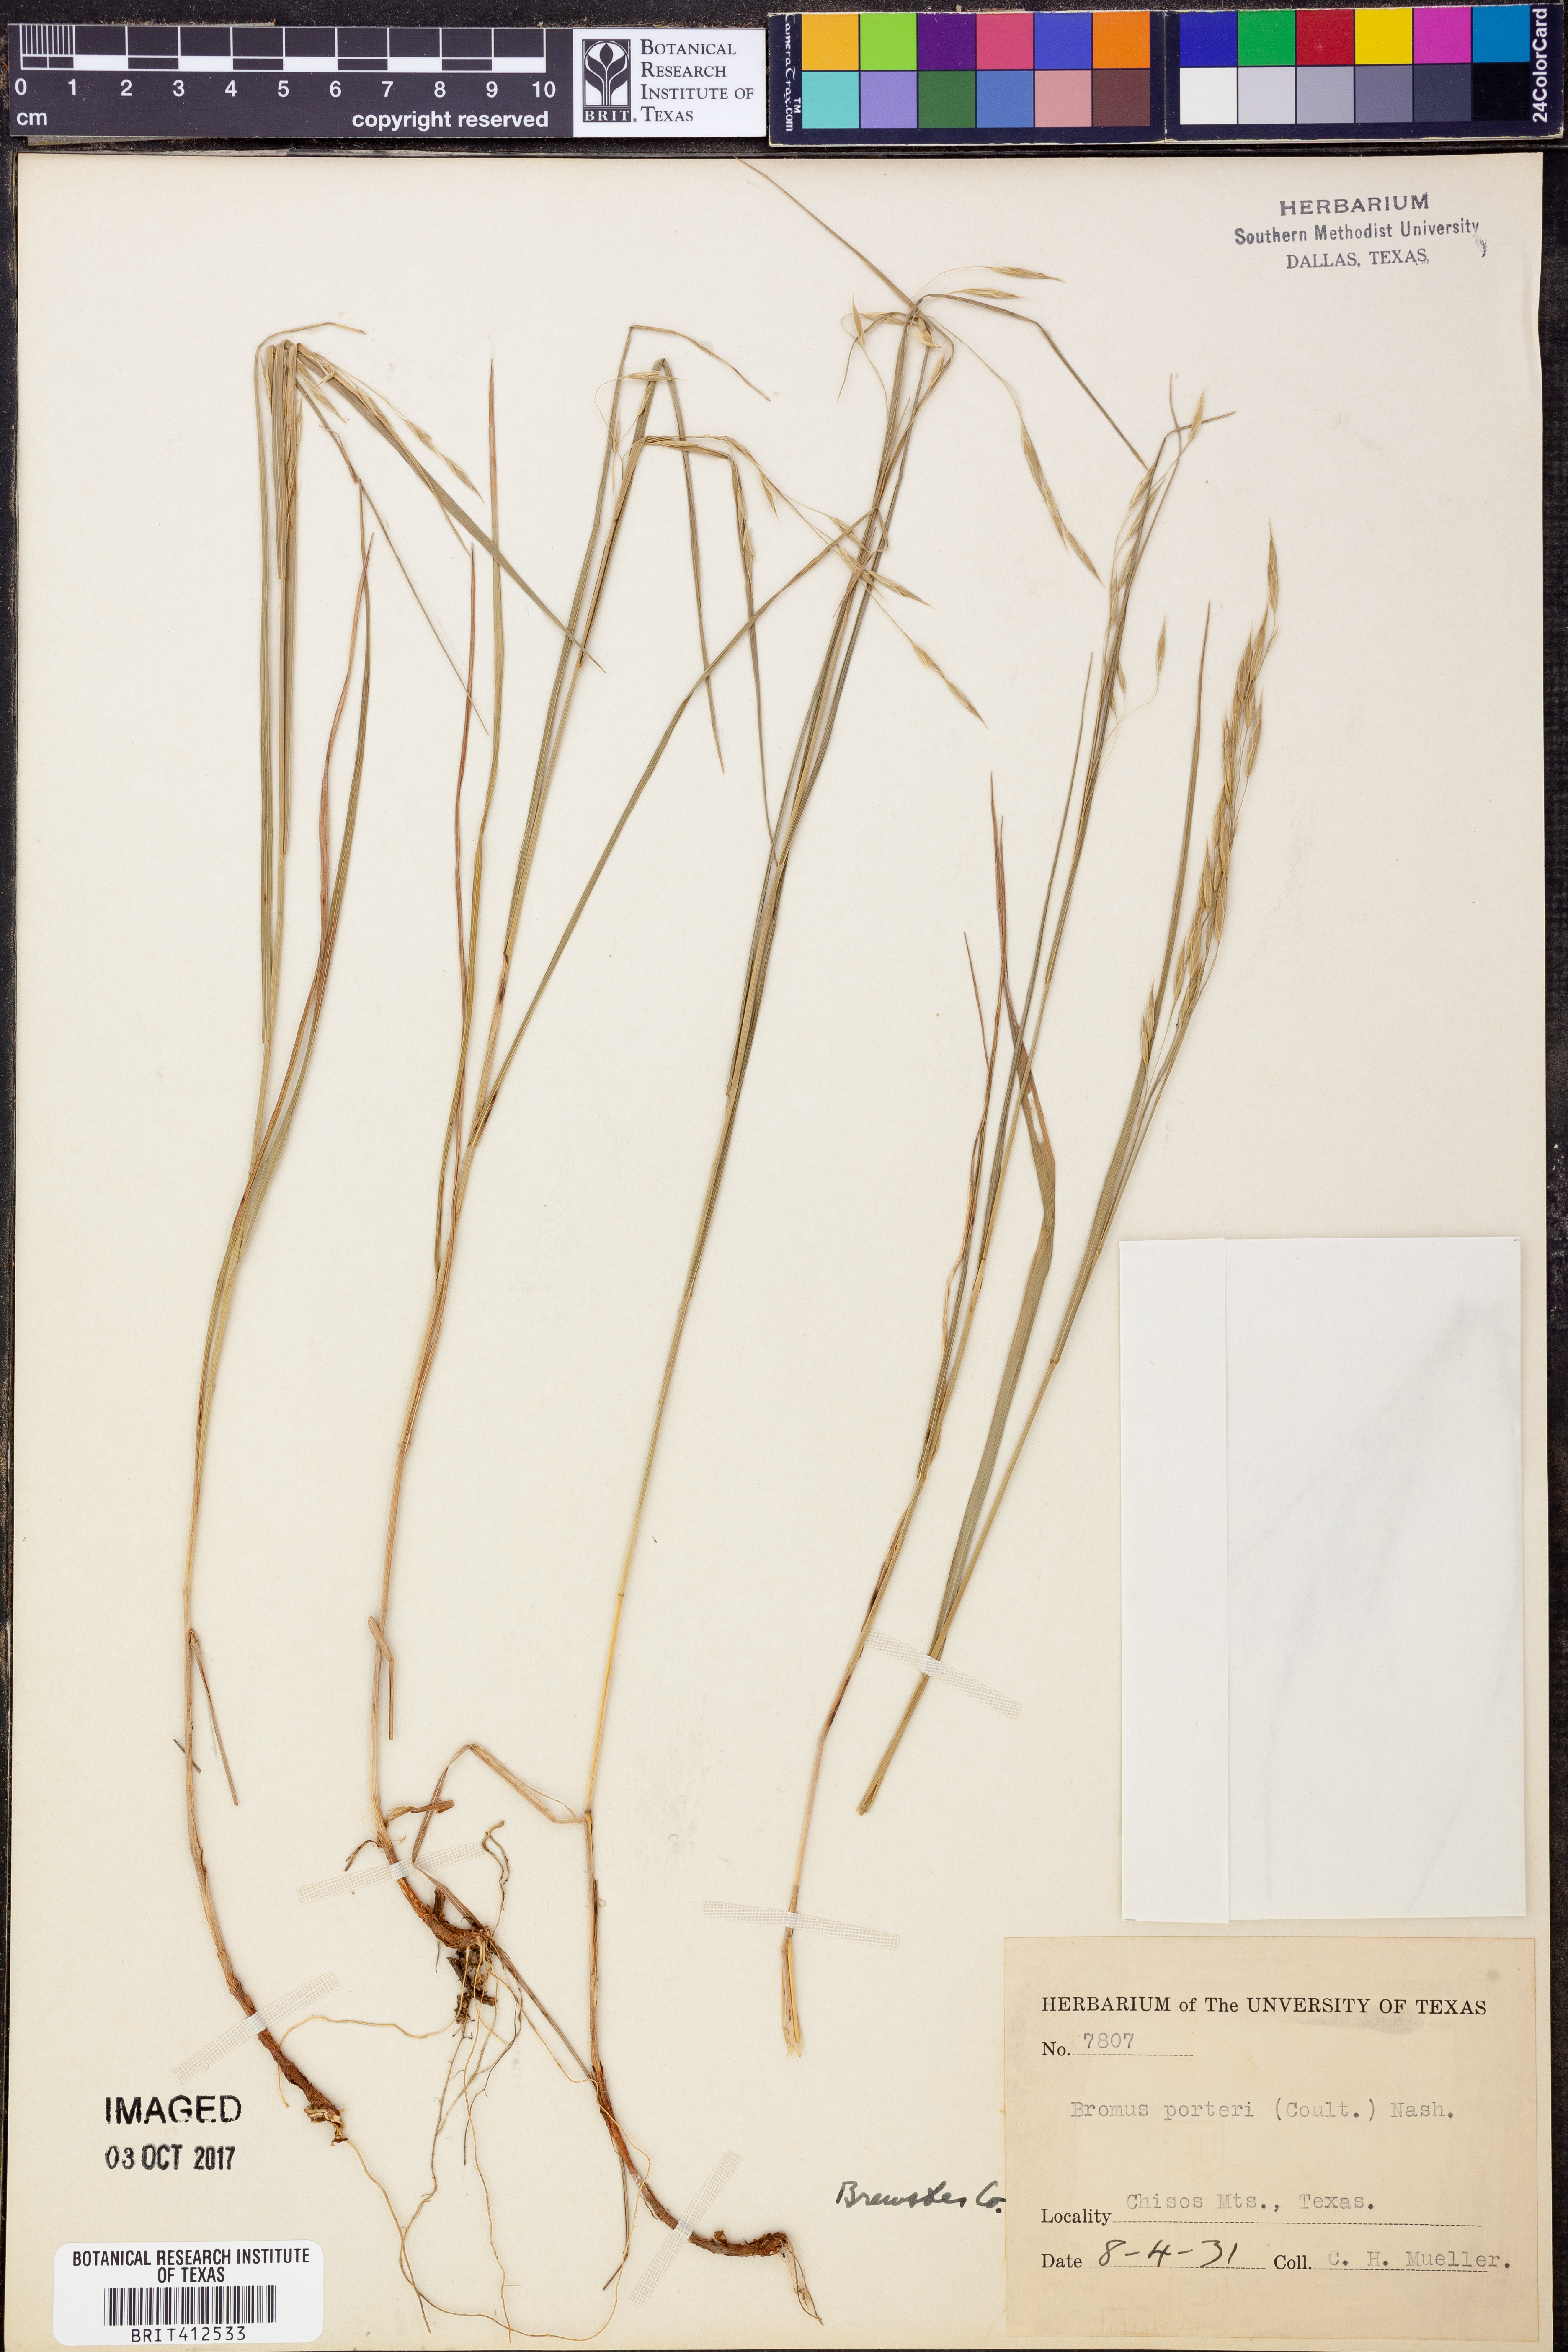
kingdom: Plantae
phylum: Tracheophyta
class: Liliopsida
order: Poales
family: Poaceae
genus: Bromus
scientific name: Bromus porteri
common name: Nodding brome
